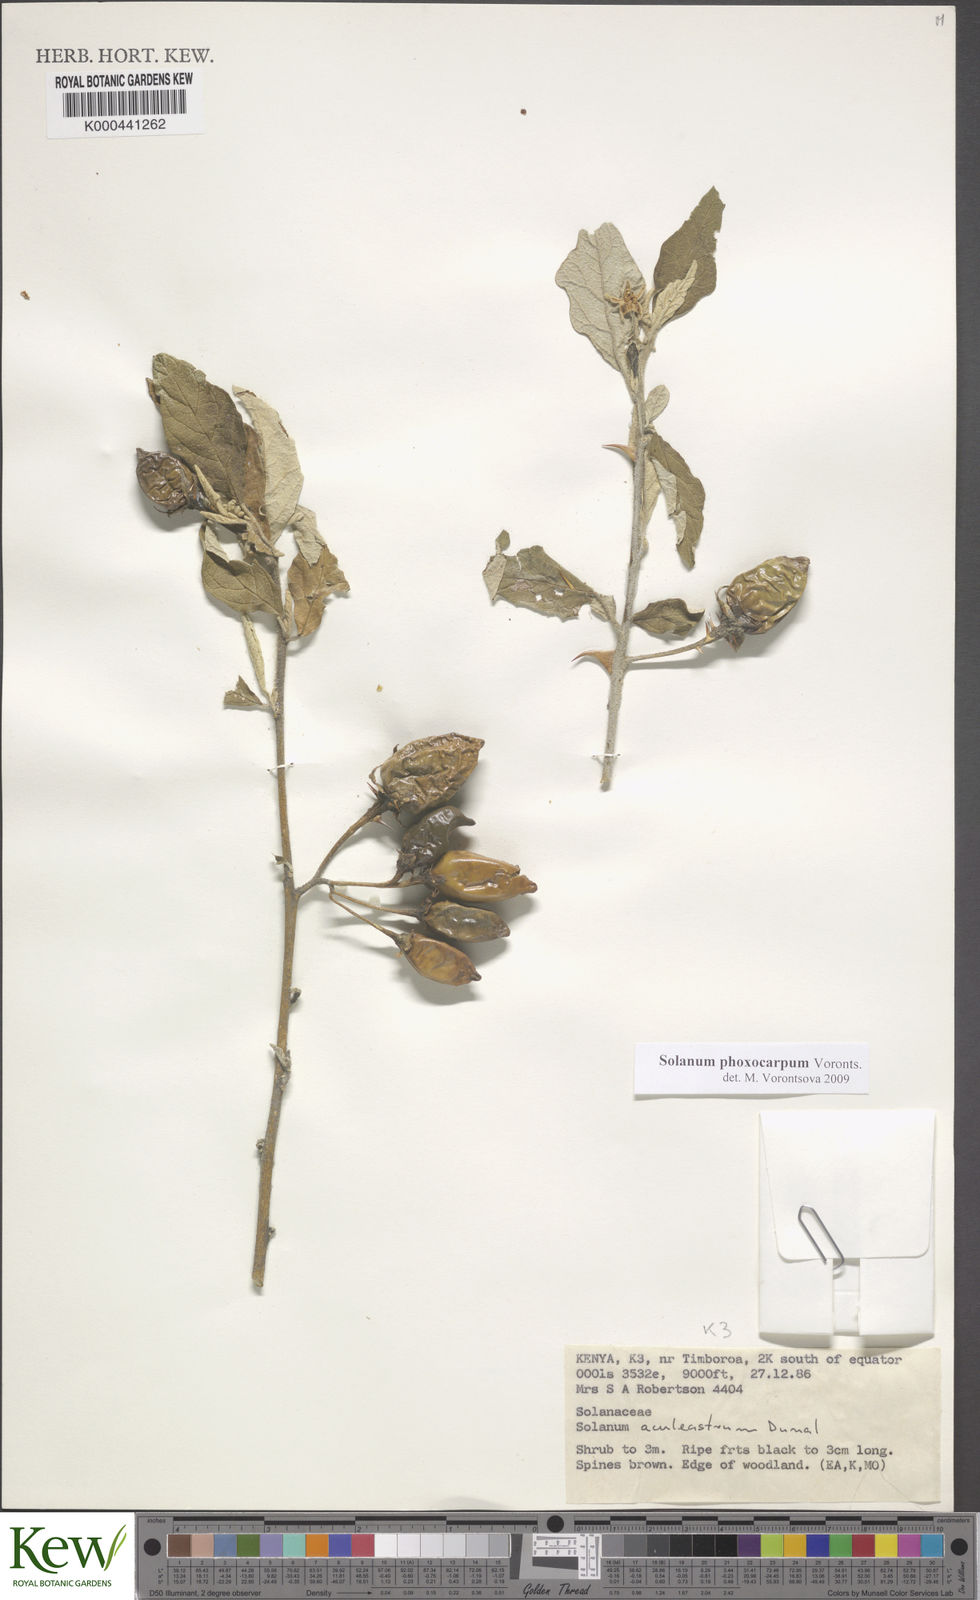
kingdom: Plantae
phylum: Tracheophyta
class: Magnoliopsida
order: Solanales
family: Solanaceae
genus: Solanum
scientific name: Solanum phoxocarpum
